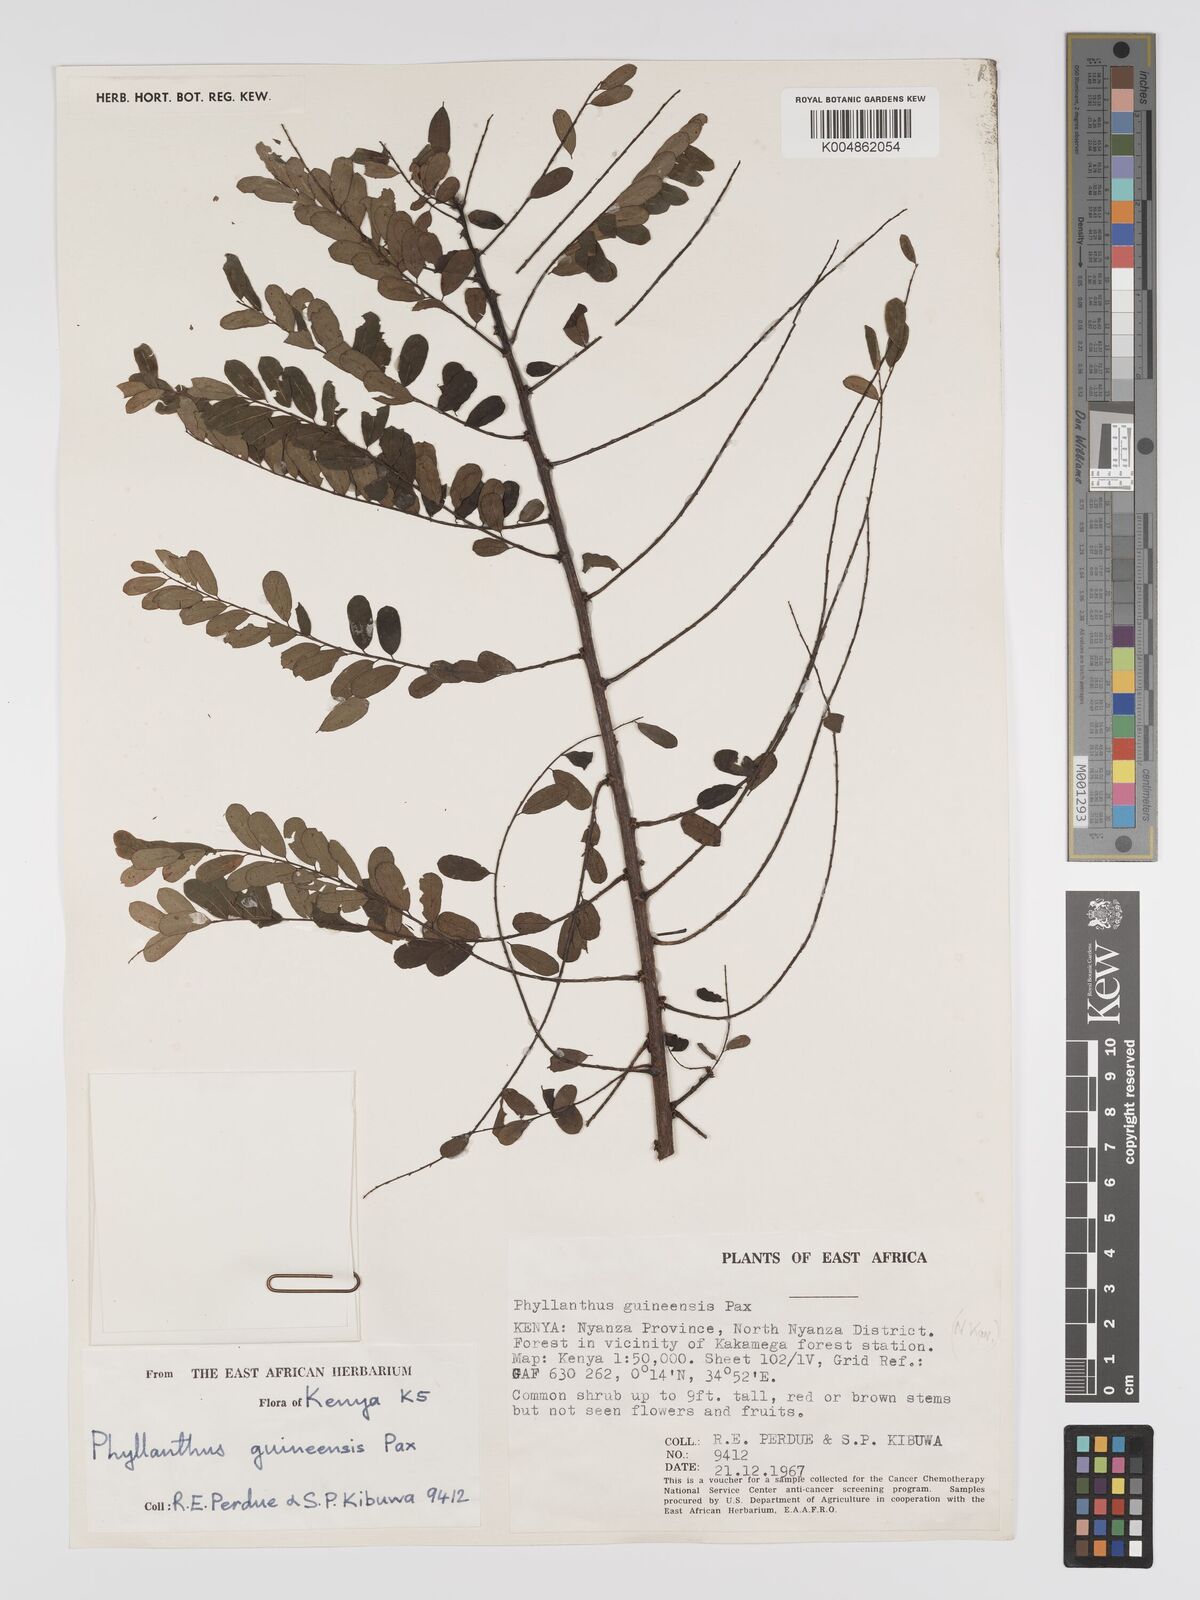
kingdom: Plantae
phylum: Tracheophyta
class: Magnoliopsida
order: Malpighiales
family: Phyllanthaceae
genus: Phyllanthus
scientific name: Phyllanthus ovalifolius
